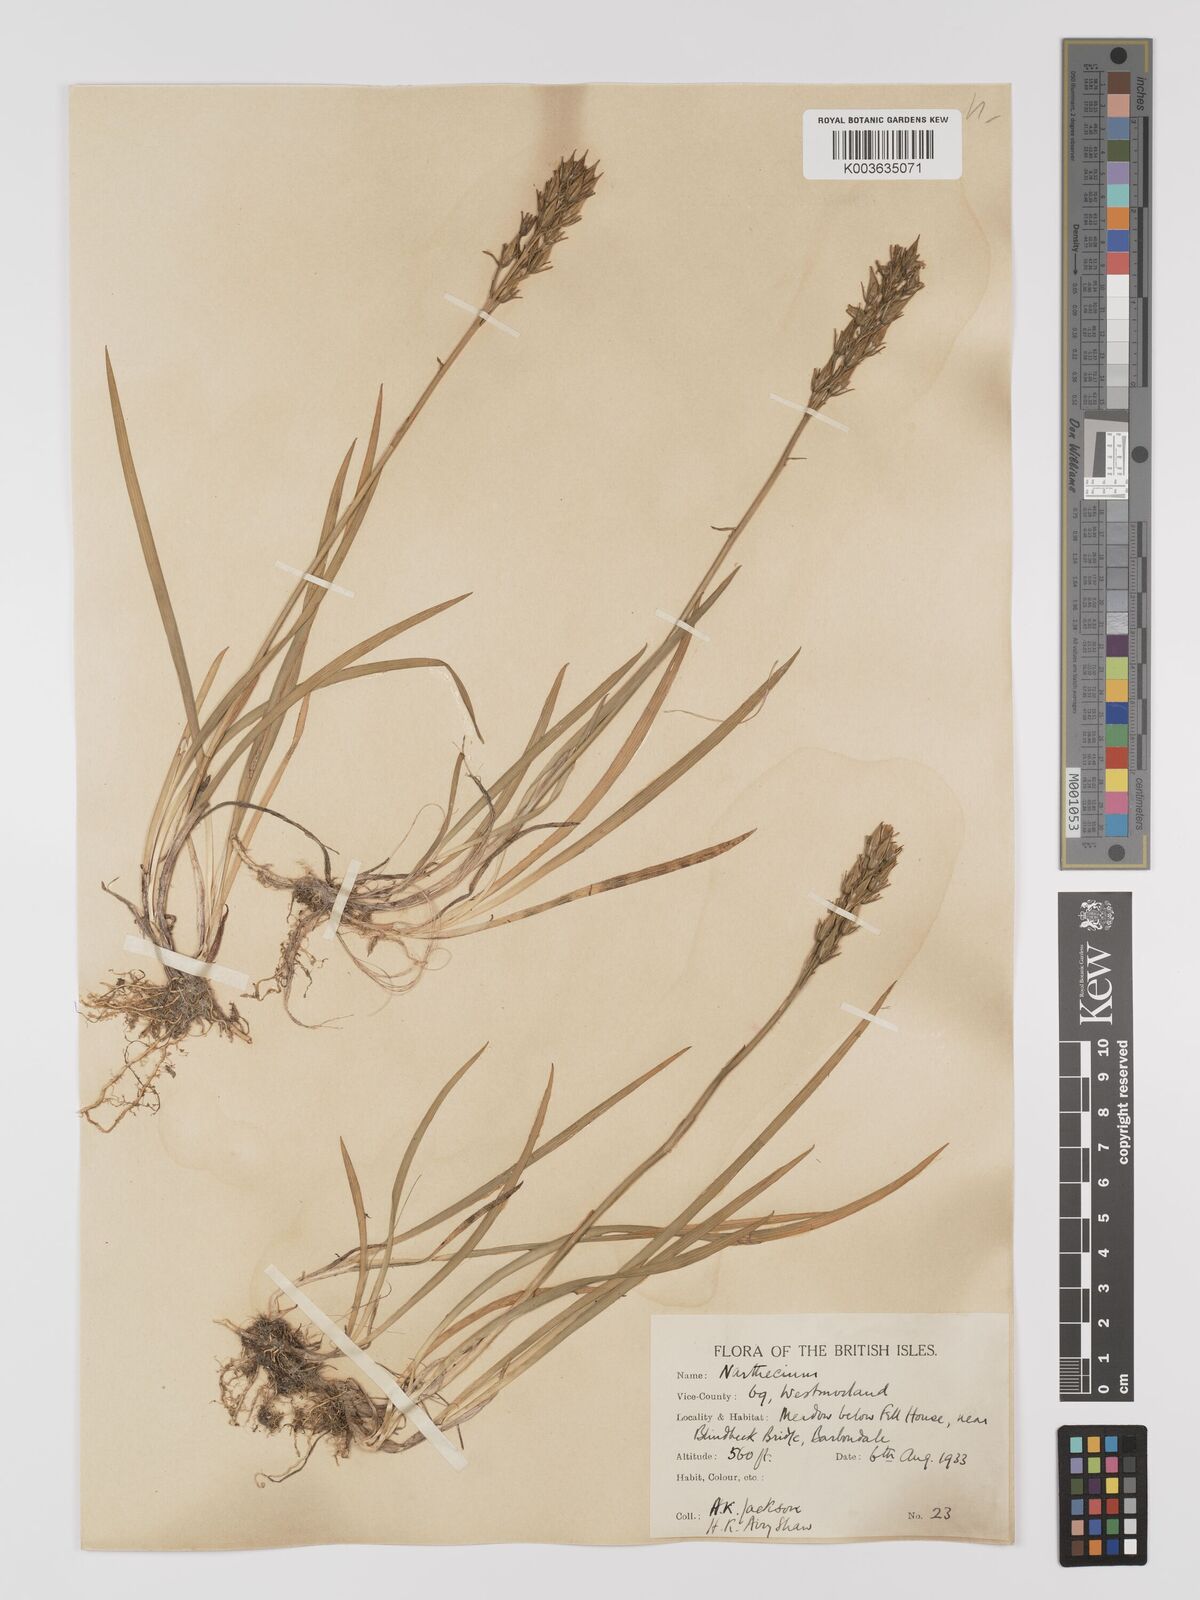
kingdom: Plantae
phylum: Tracheophyta
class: Liliopsida
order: Dioscoreales
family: Nartheciaceae
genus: Narthecium
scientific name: Narthecium
